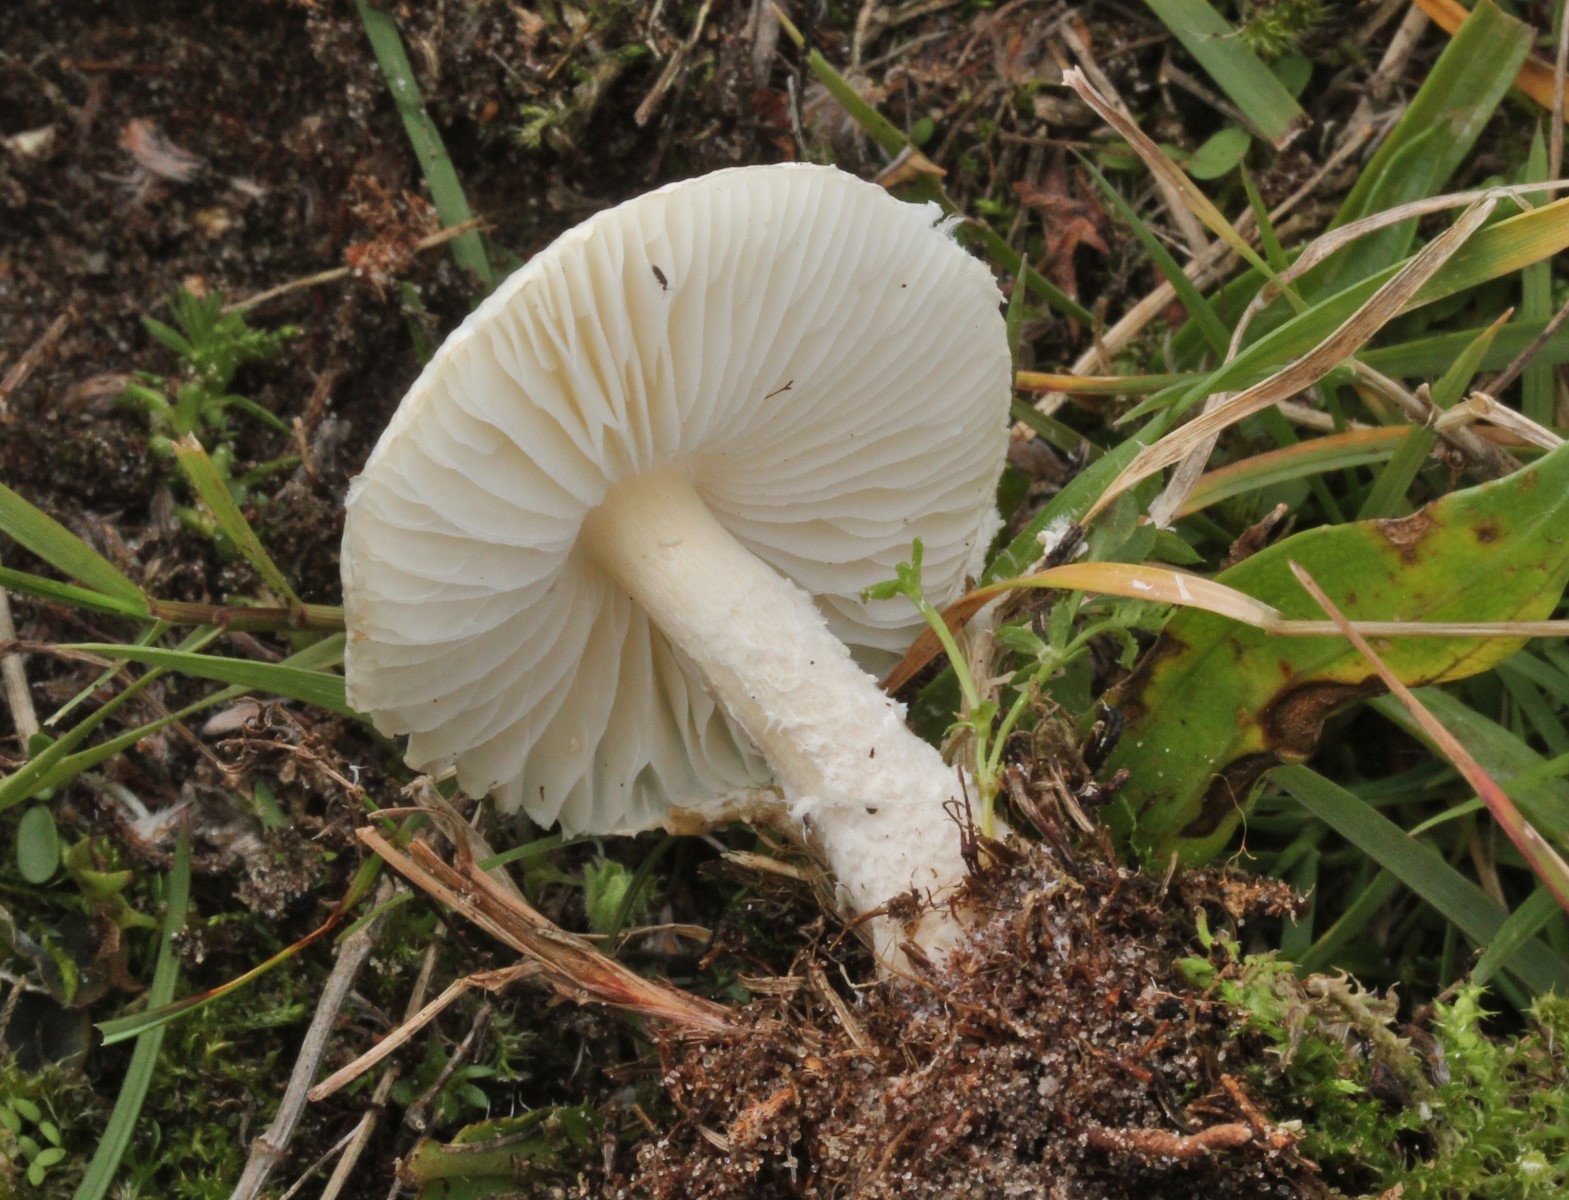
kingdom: Fungi
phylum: Basidiomycota
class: Agaricomycetes
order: Agaricales
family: Agaricaceae
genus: Lepiota
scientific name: Lepiota oreadiformis
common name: blegbrun parasolhat
